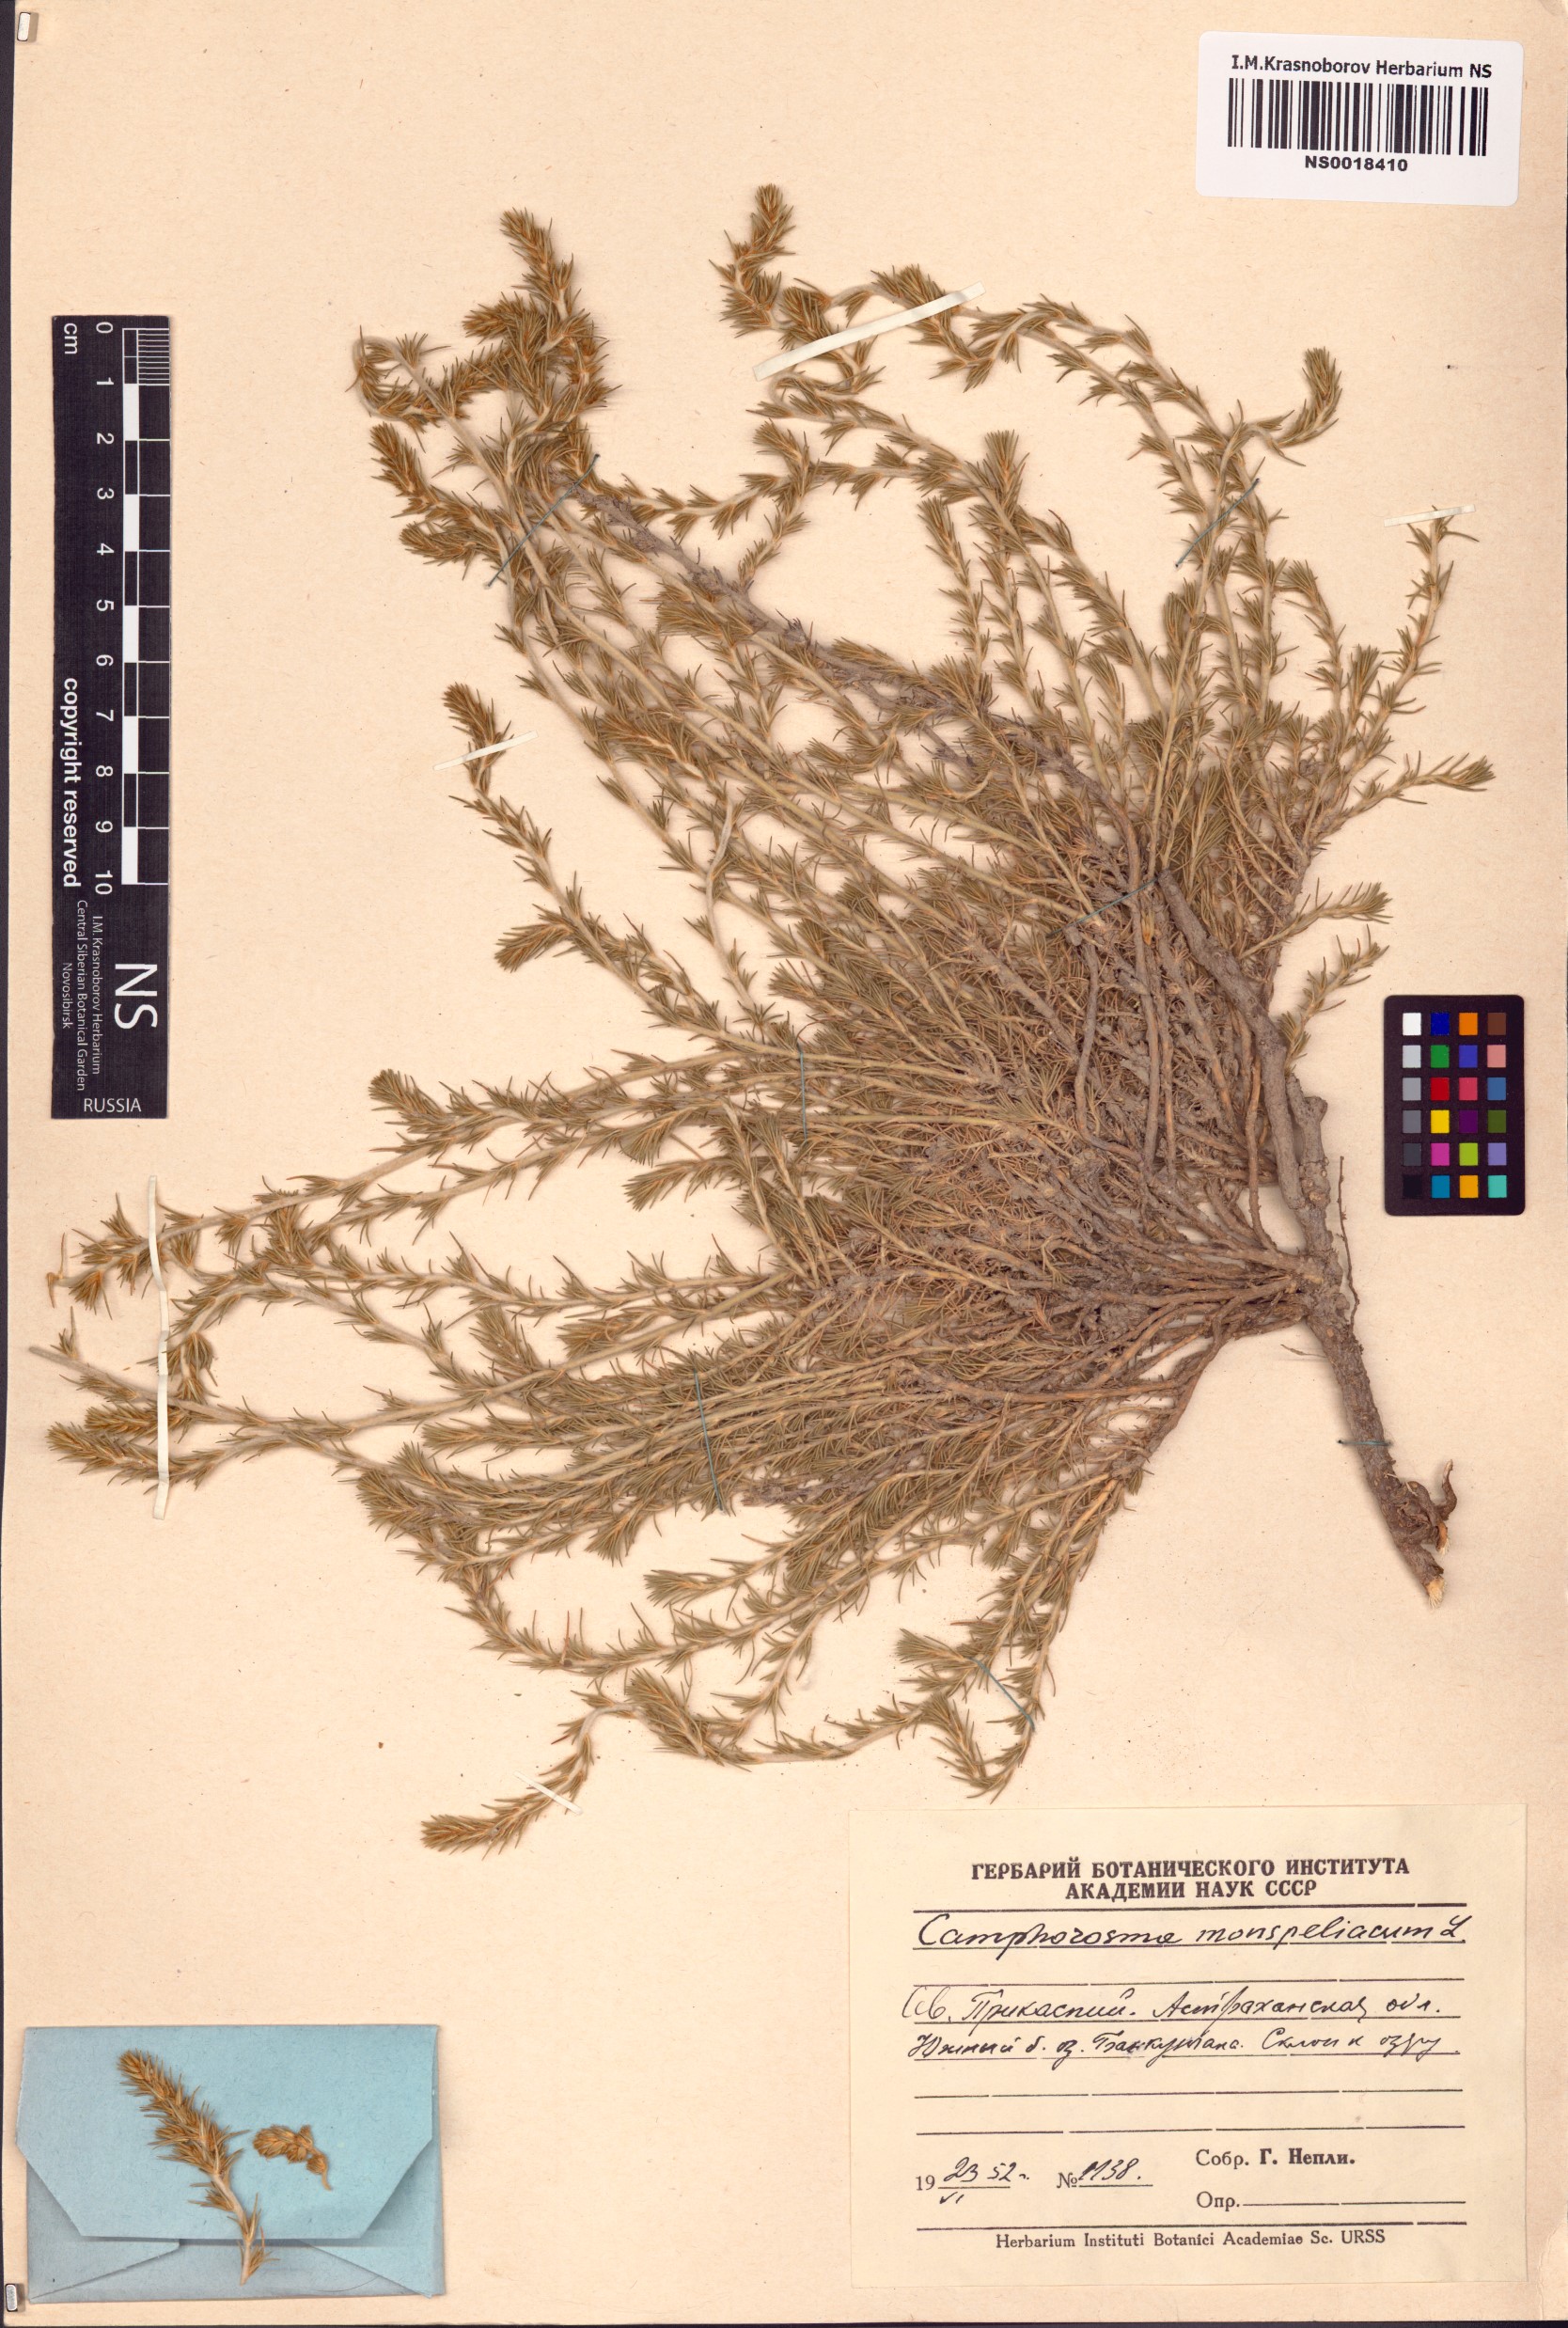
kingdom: Plantae
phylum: Tracheophyta
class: Magnoliopsida
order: Caryophyllales
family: Amaranthaceae
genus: Camphorosma
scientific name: Camphorosma monspeliaca
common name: Camphorfume
